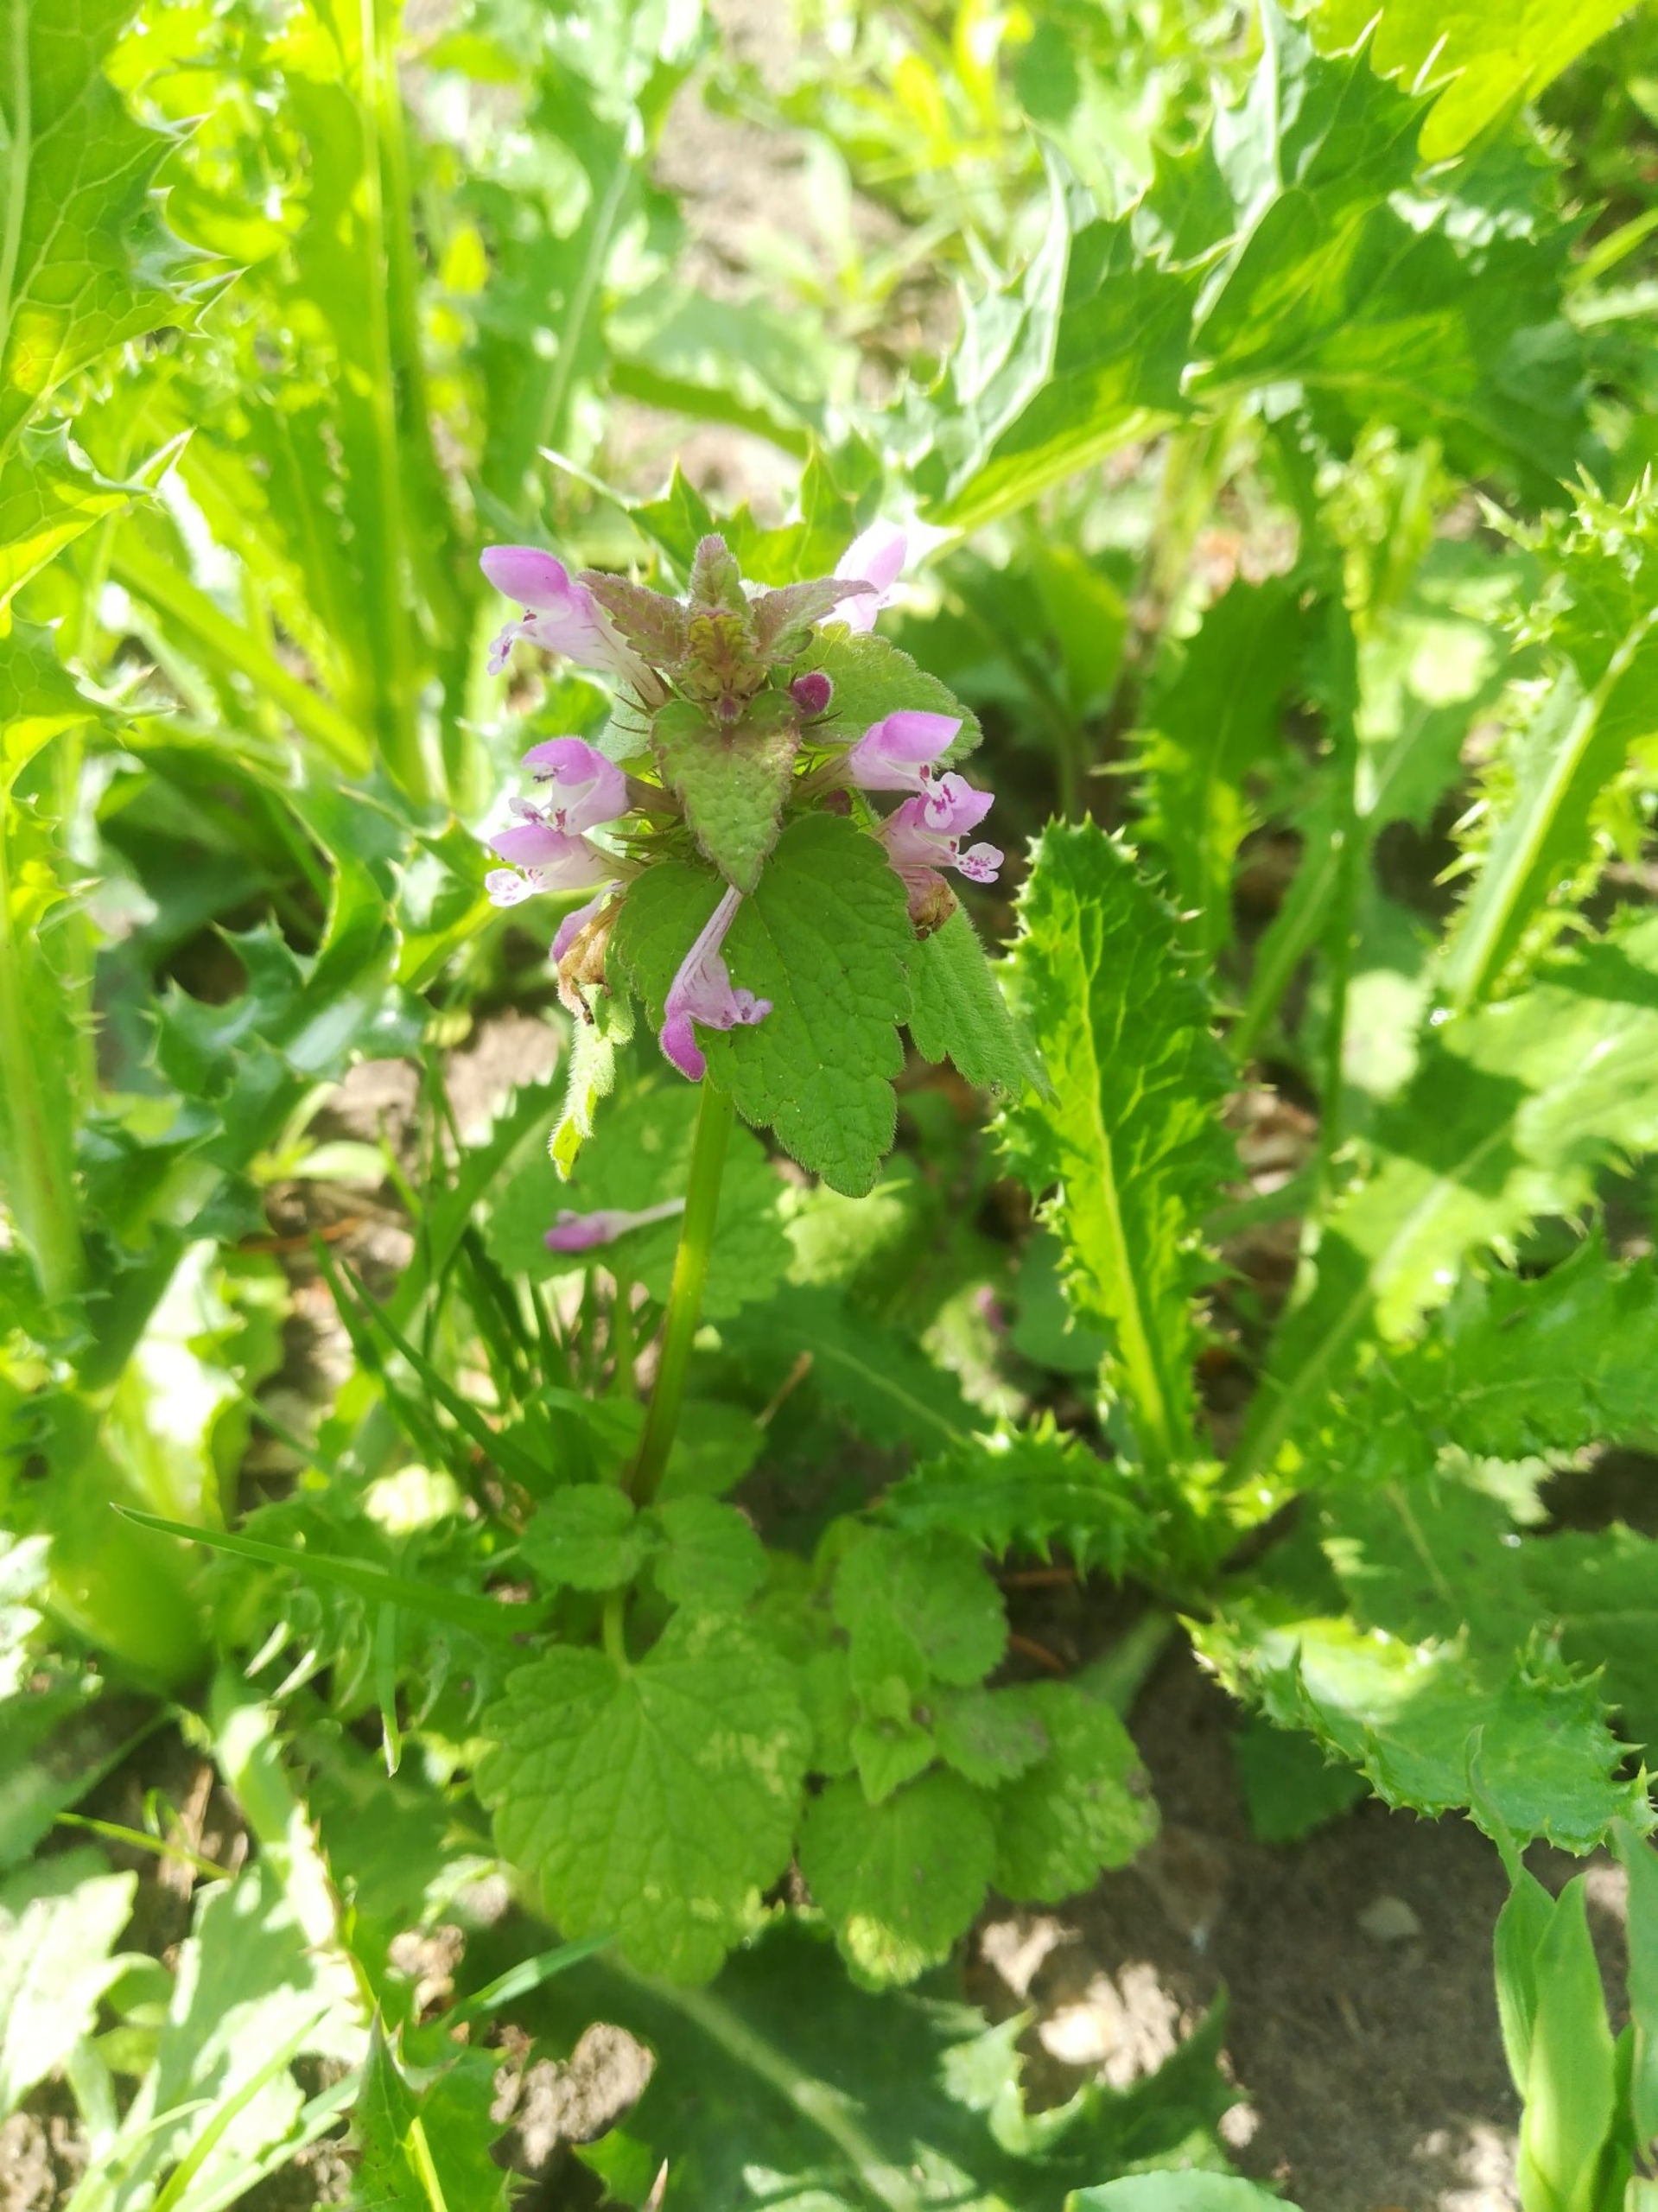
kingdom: Plantae
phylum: Tracheophyta
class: Magnoliopsida
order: Lamiales
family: Lamiaceae
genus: Lamium
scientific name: Lamium purpureum
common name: Rød tvetand
